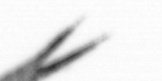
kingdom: Animalia
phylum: Annelida
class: Polychaeta
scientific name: Polychaeta
